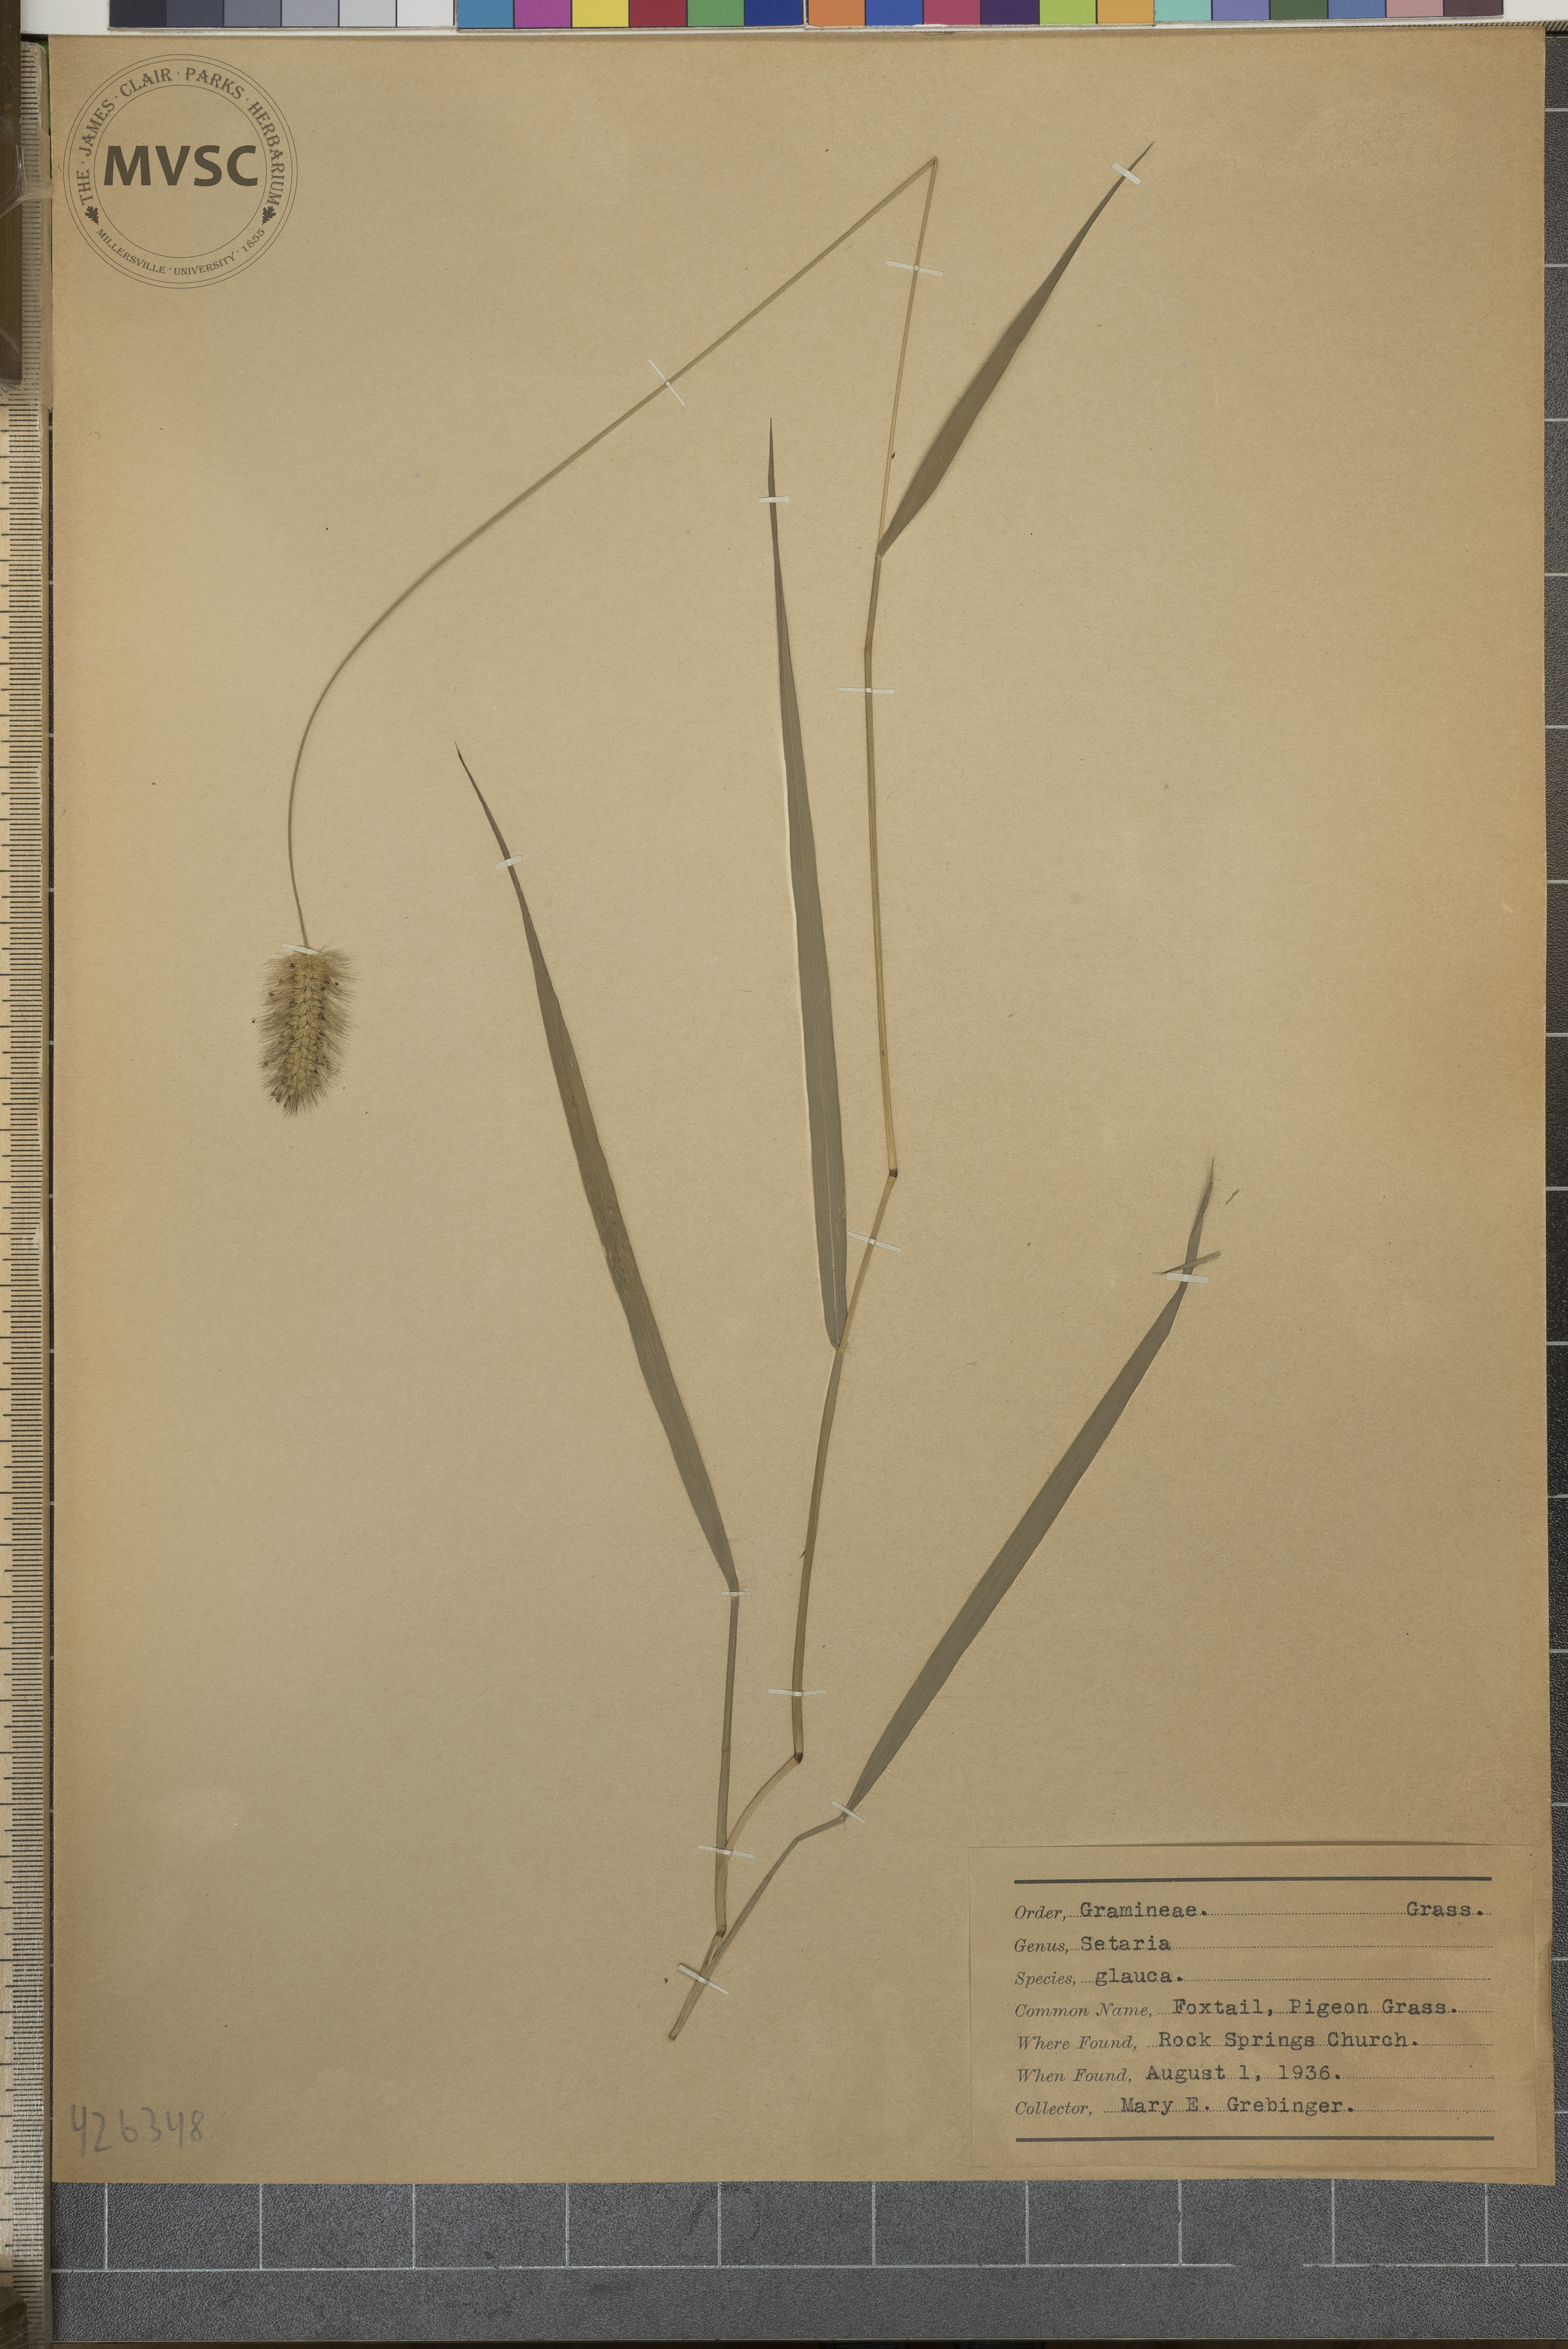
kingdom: Plantae
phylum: Tracheophyta
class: Liliopsida
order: Poales
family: Poaceae
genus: Setaria
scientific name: Setaria pumila
